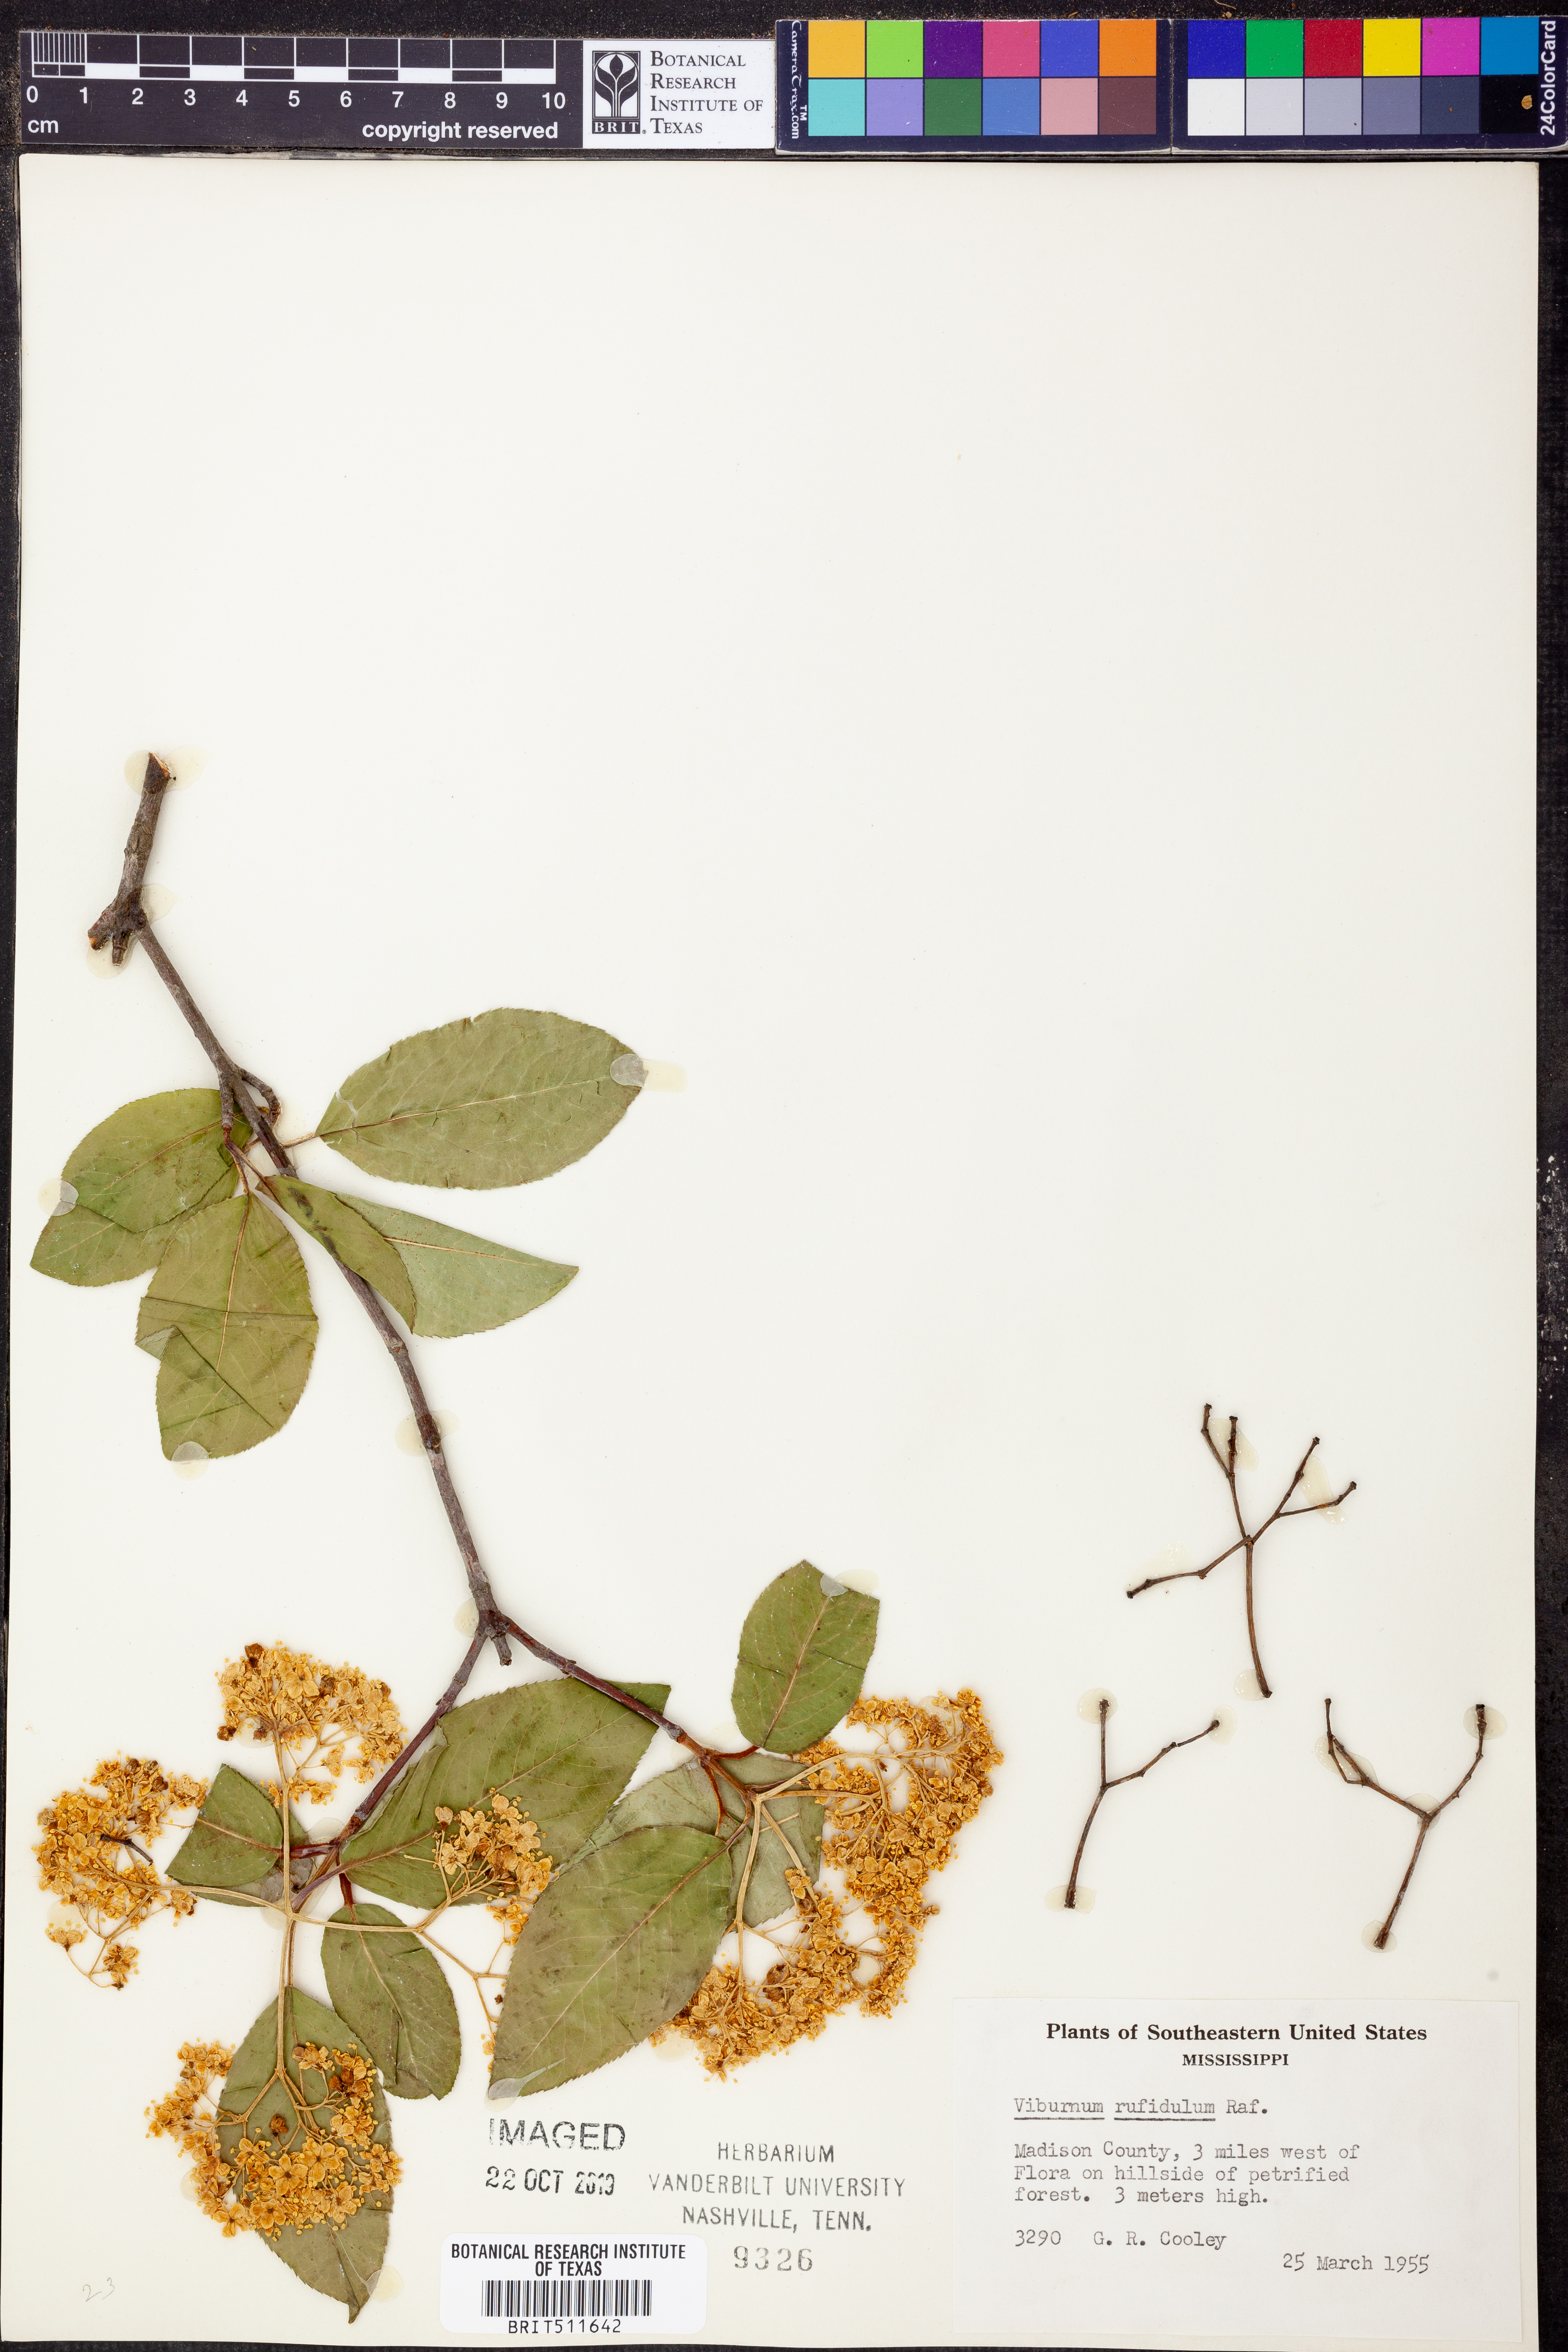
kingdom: Plantae
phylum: Tracheophyta
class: Magnoliopsida
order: Dipsacales
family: Viburnaceae
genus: Viburnum
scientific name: Viburnum rufidulum
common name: Blue haw
